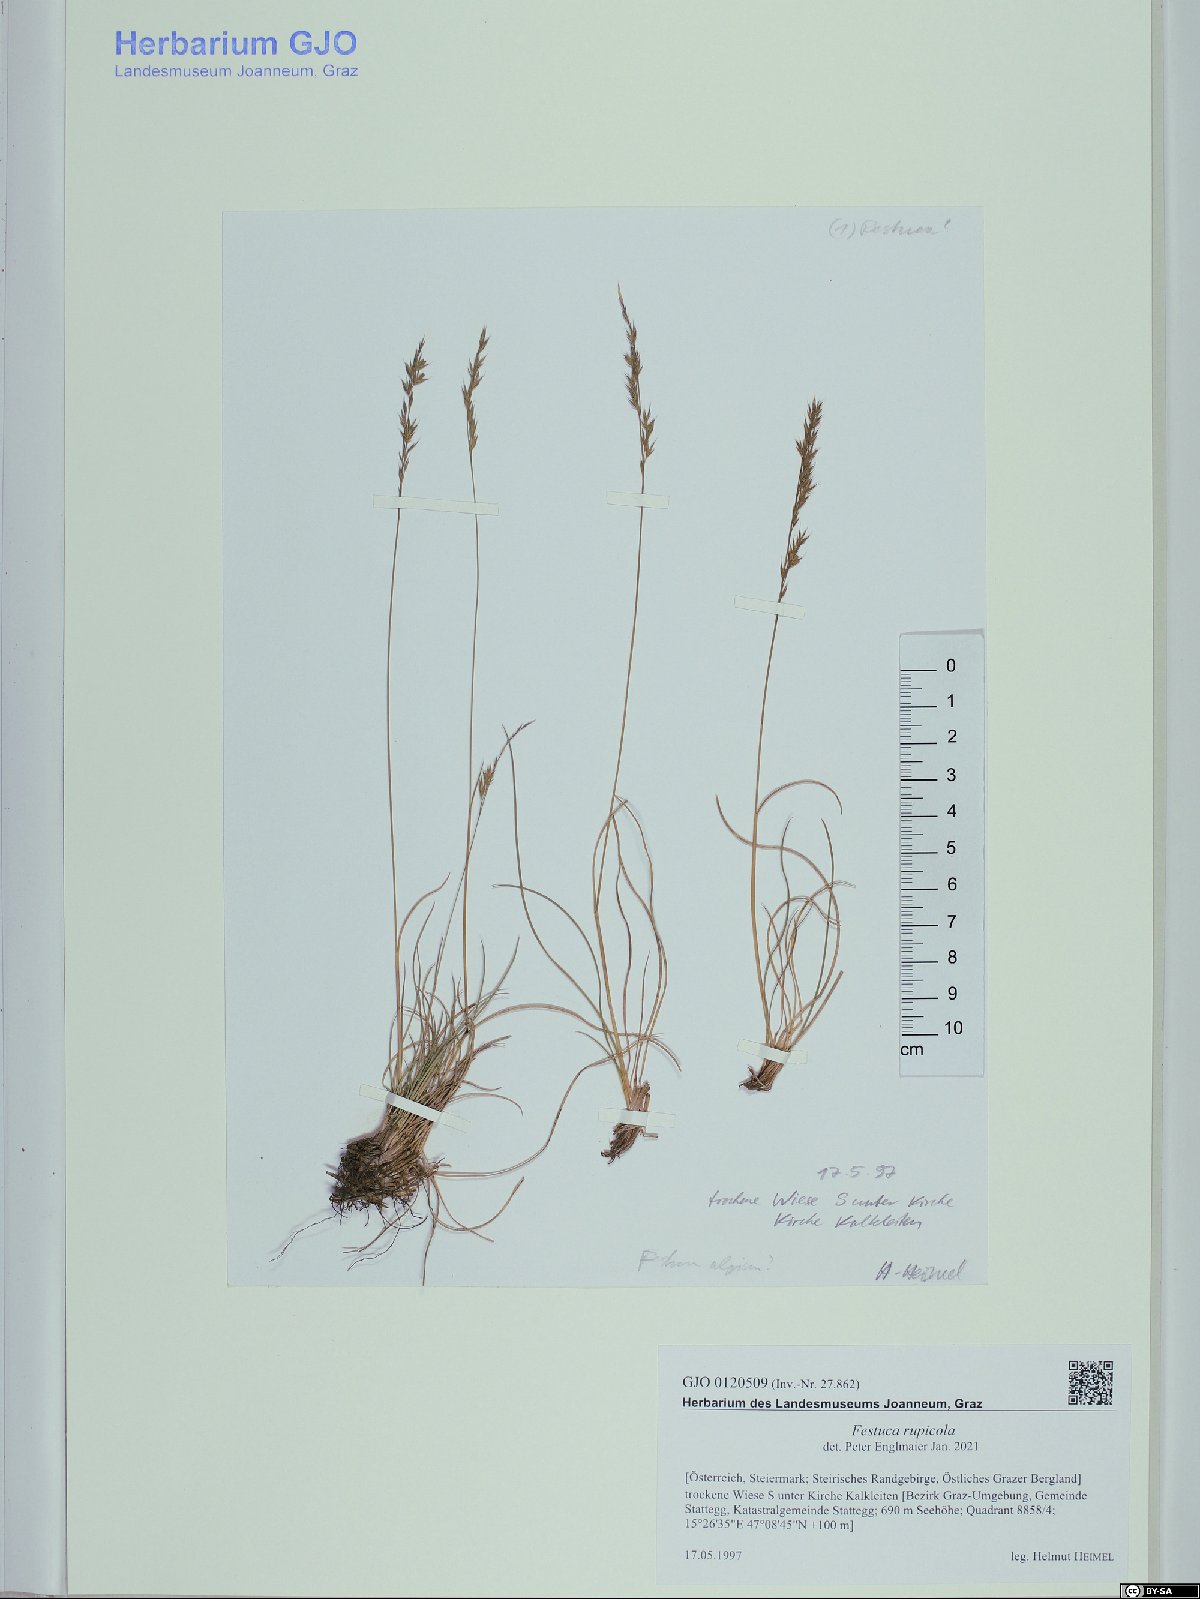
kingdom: Plantae
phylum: Tracheophyta
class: Liliopsida
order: Poales
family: Poaceae
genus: Festuca
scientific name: Festuca rupicola
